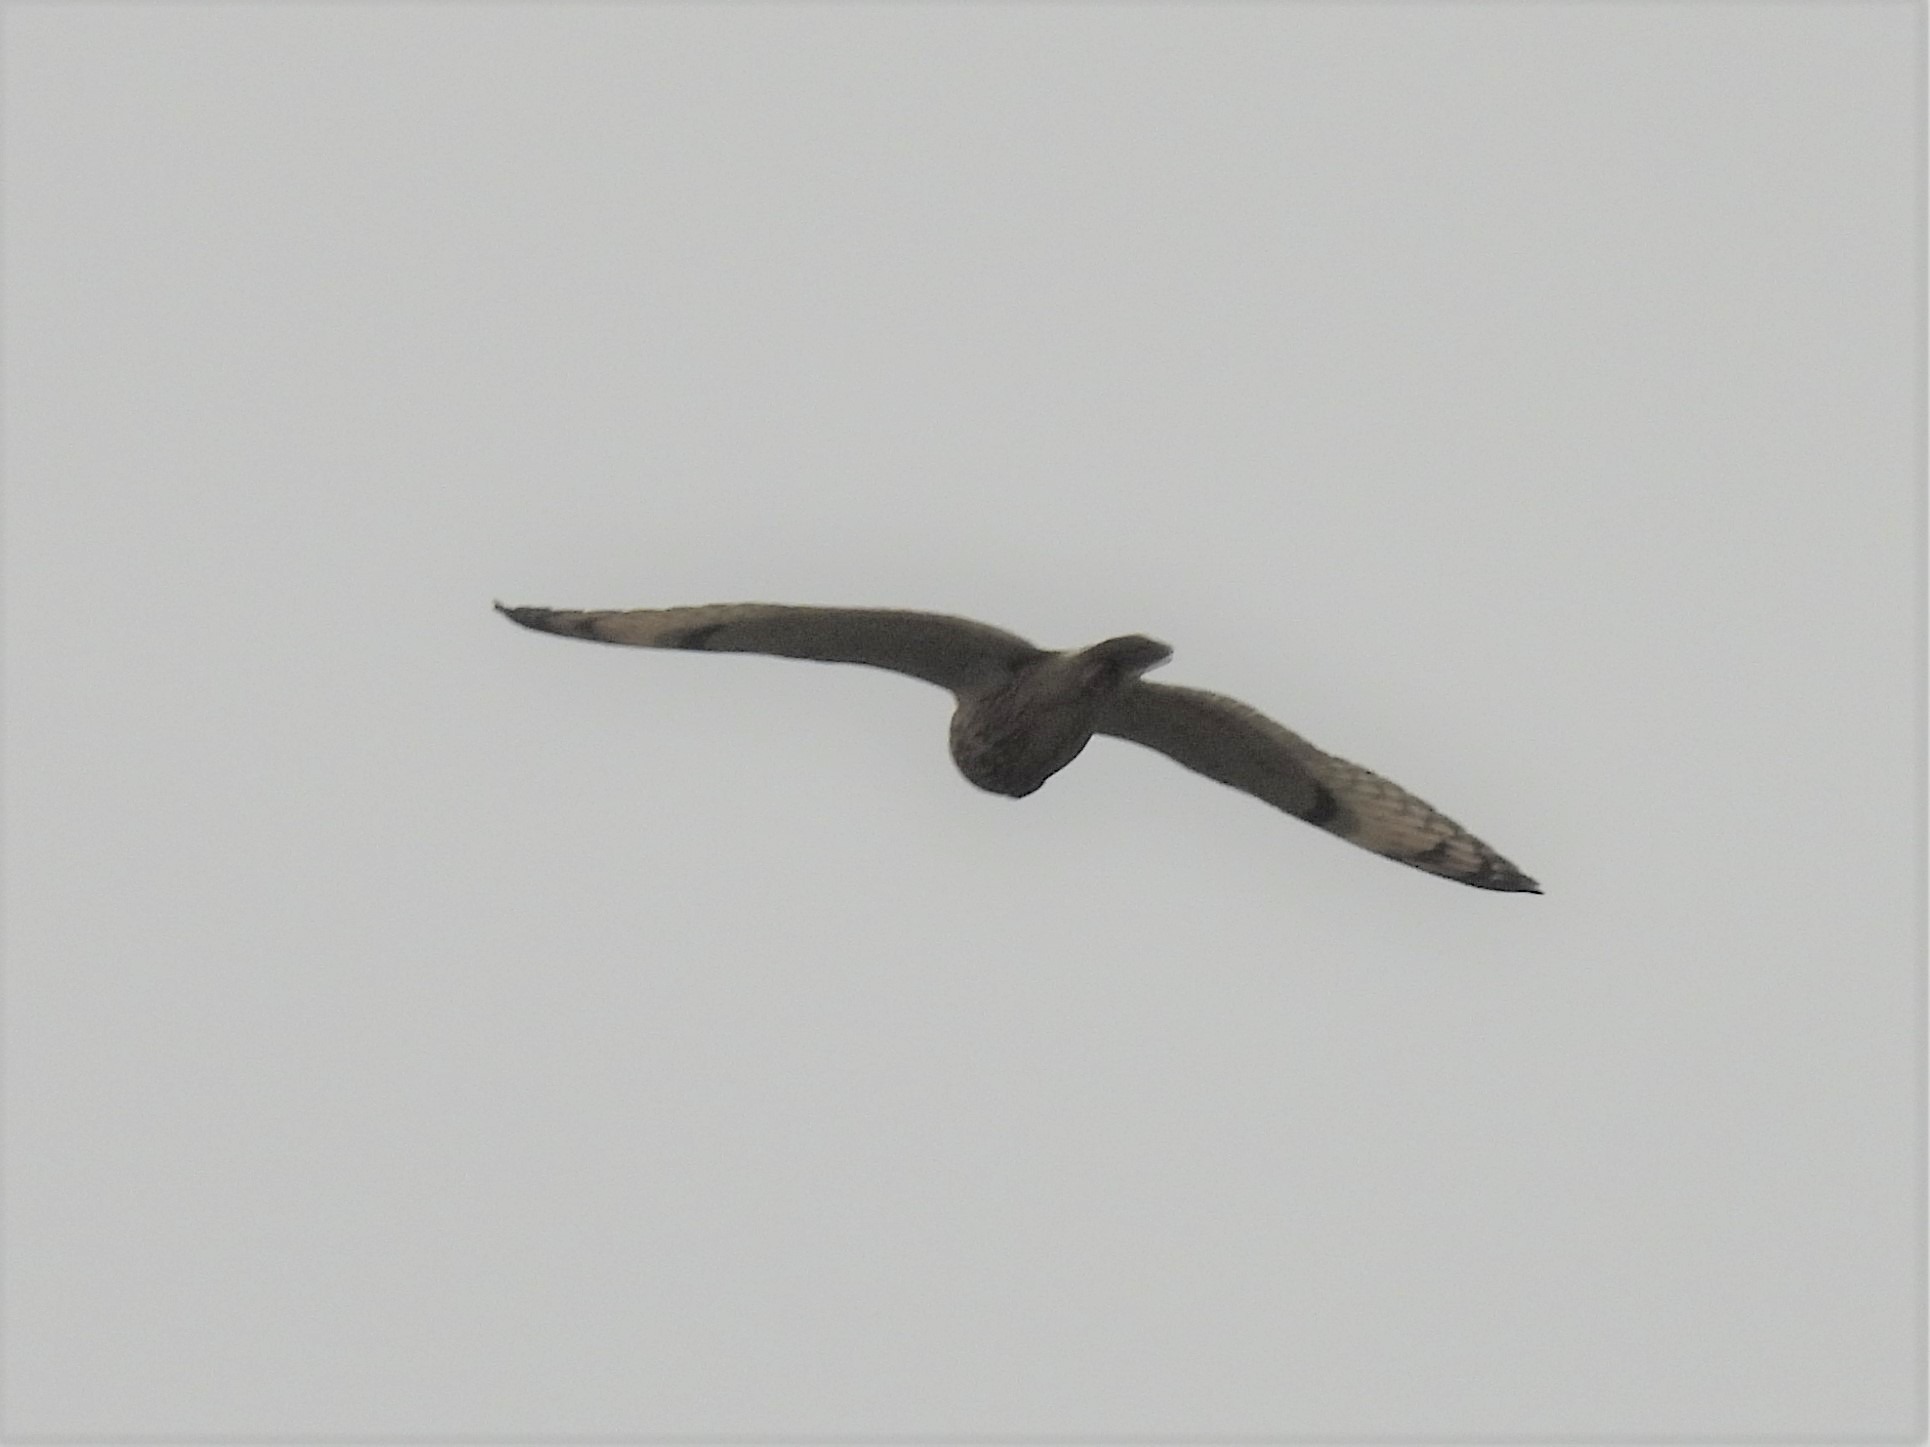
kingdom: Animalia
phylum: Chordata
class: Aves
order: Strigiformes
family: Strigidae
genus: Asio
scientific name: Asio flammeus
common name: Mosehornugle
